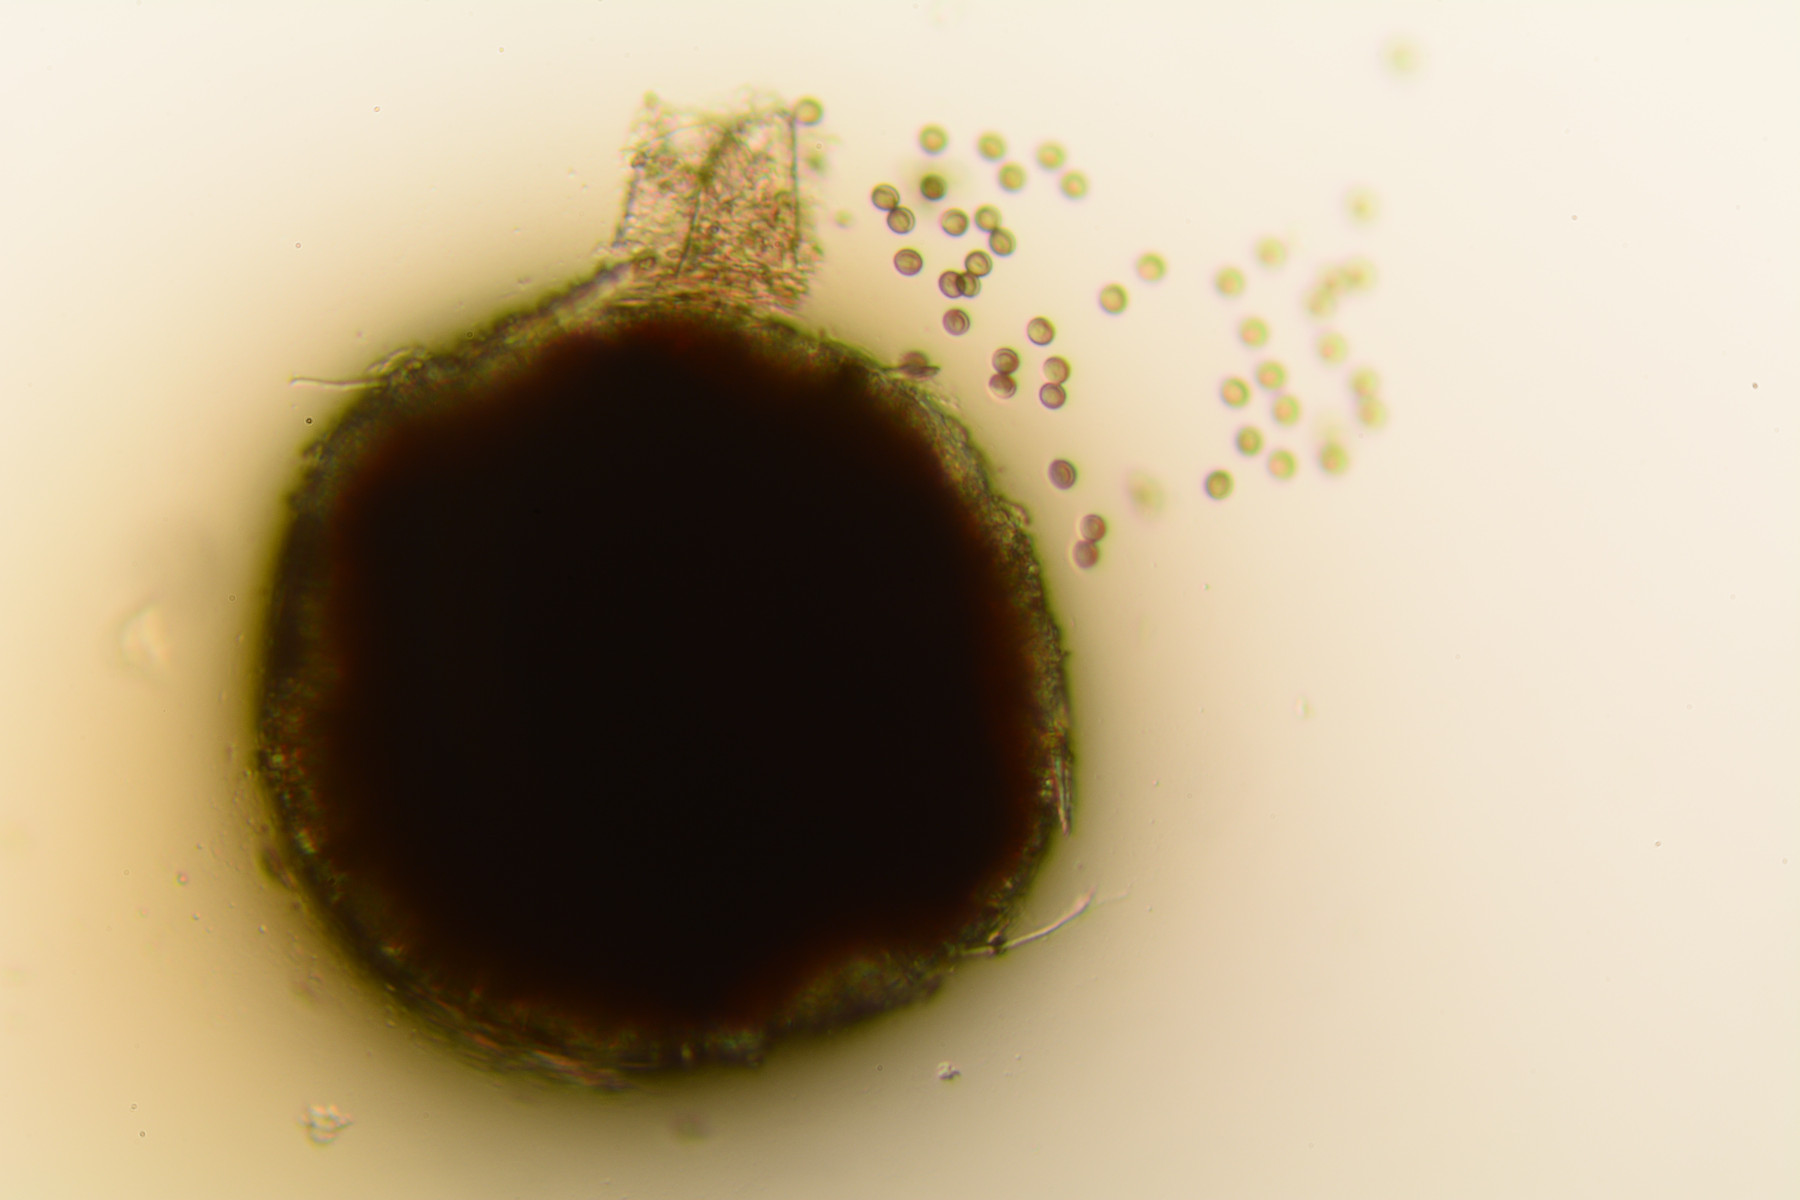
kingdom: Fungi
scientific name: Fungi
